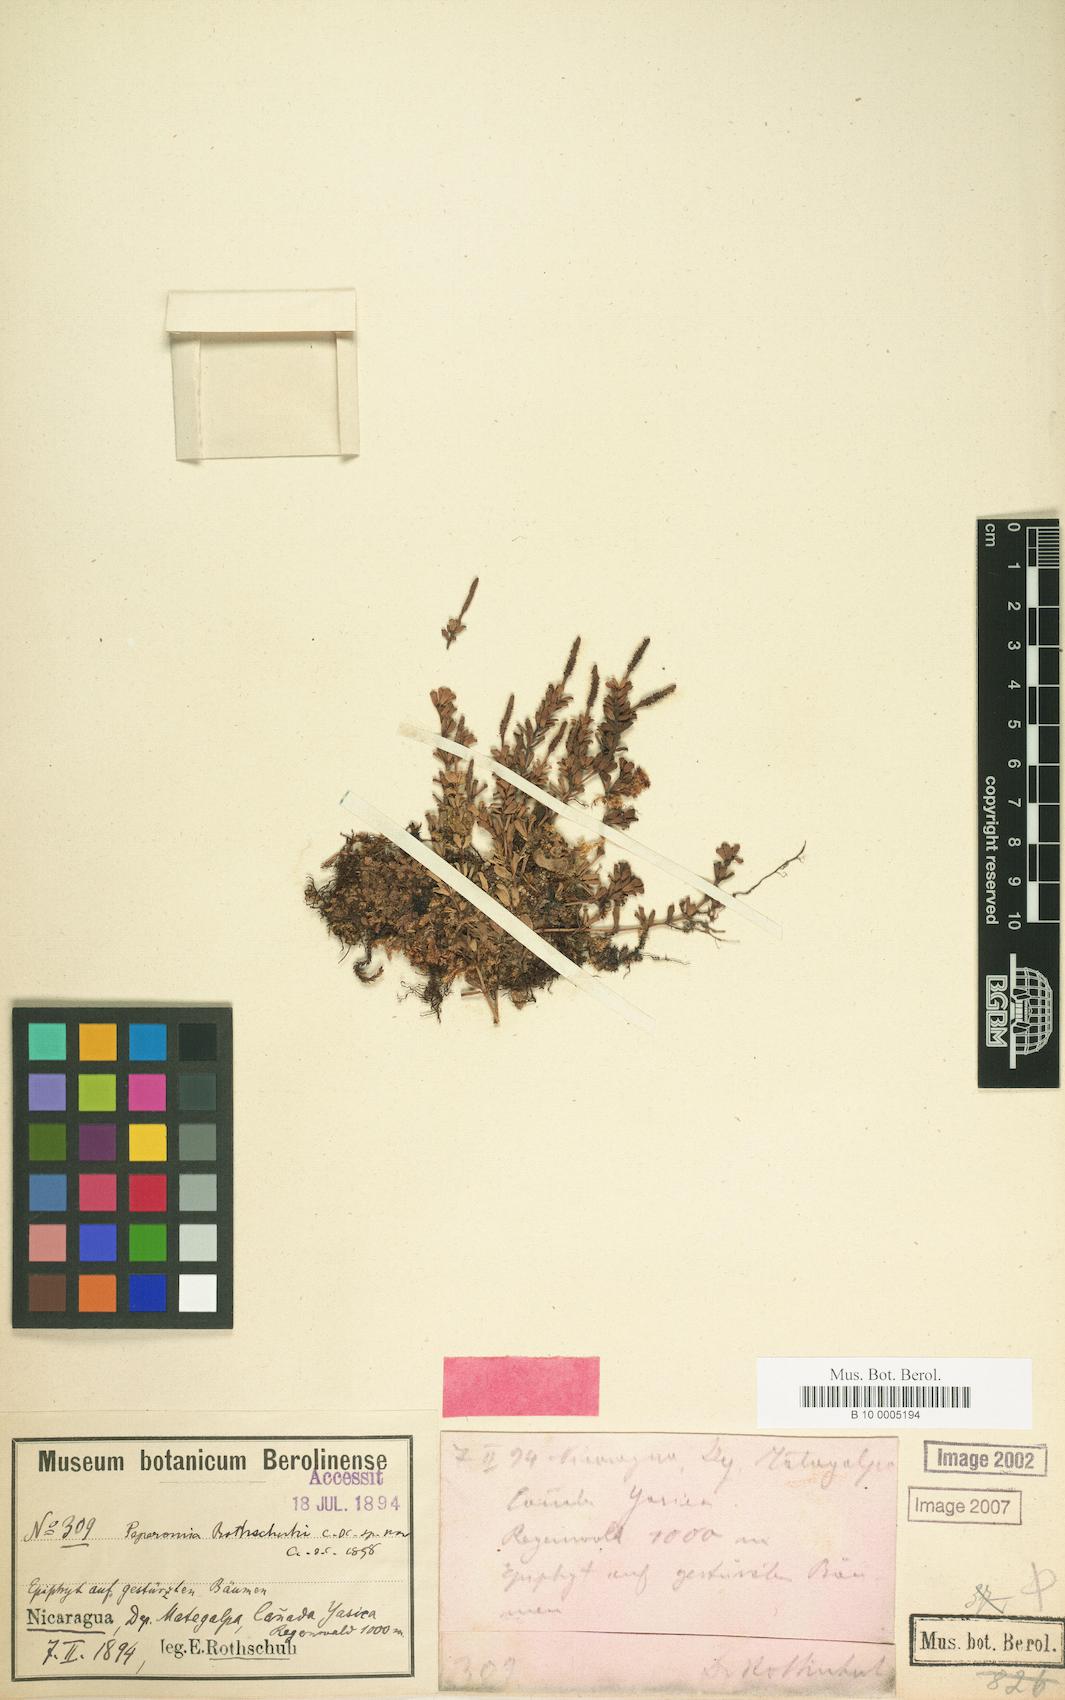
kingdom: Plantae
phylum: Tracheophyta
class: Magnoliopsida
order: Piperales
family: Piperaceae
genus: Peperomia
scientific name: Peperomia deppeana
